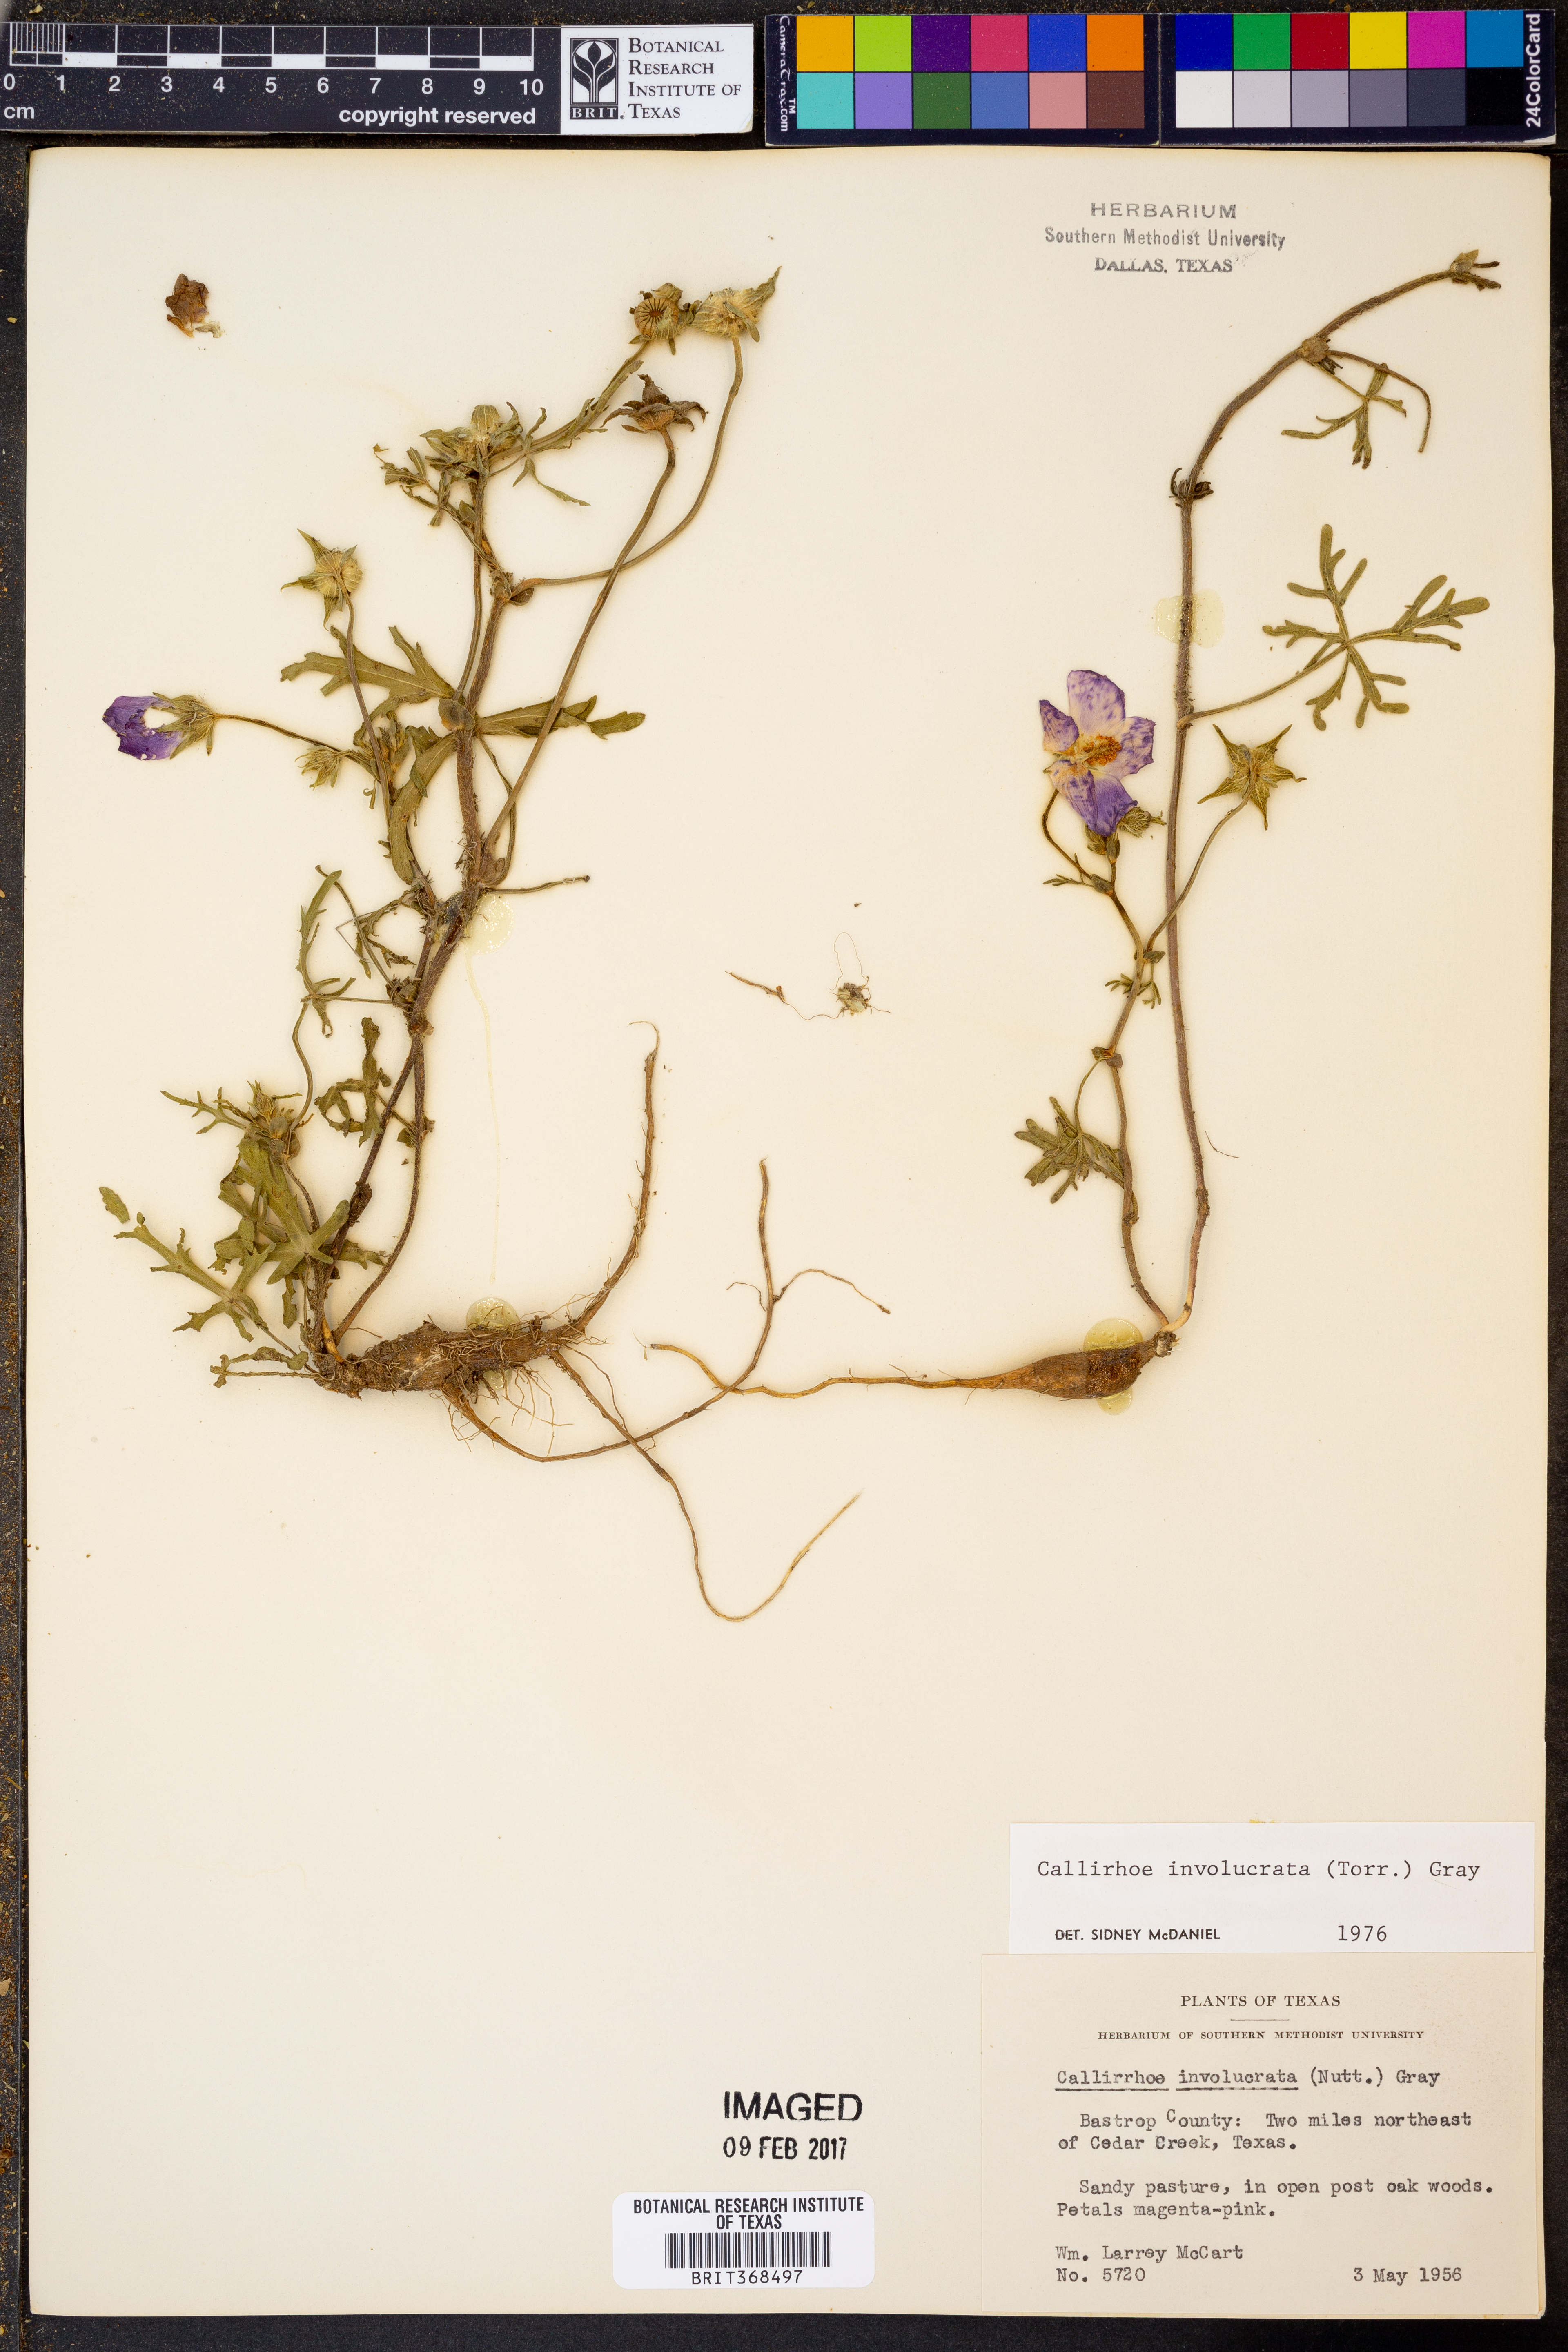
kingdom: Plantae
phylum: Tracheophyta
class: Magnoliopsida
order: Malvales
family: Malvaceae
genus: Callirhoe
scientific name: Callirhoe involucrata
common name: Purple poppy-mallow
